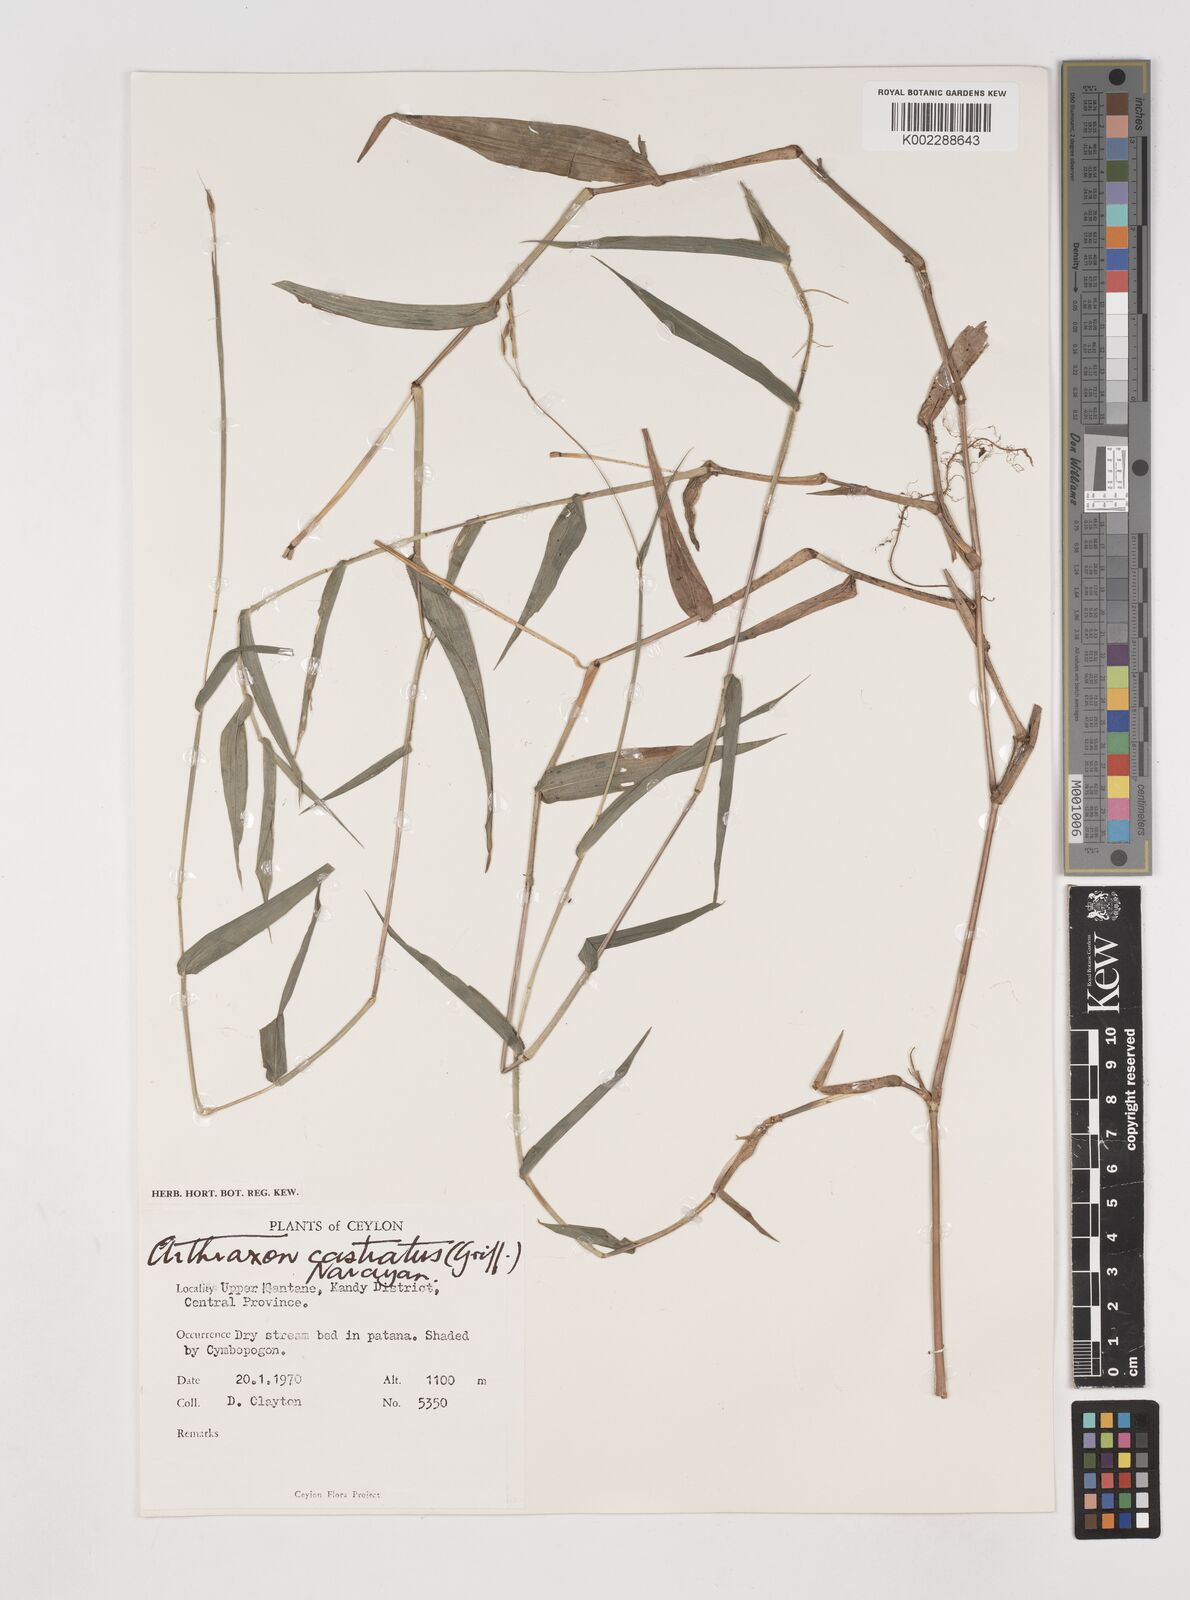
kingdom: Plantae
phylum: Tracheophyta
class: Liliopsida
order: Poales
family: Poaceae
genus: Arthraxon
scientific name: Arthraxon castratus
